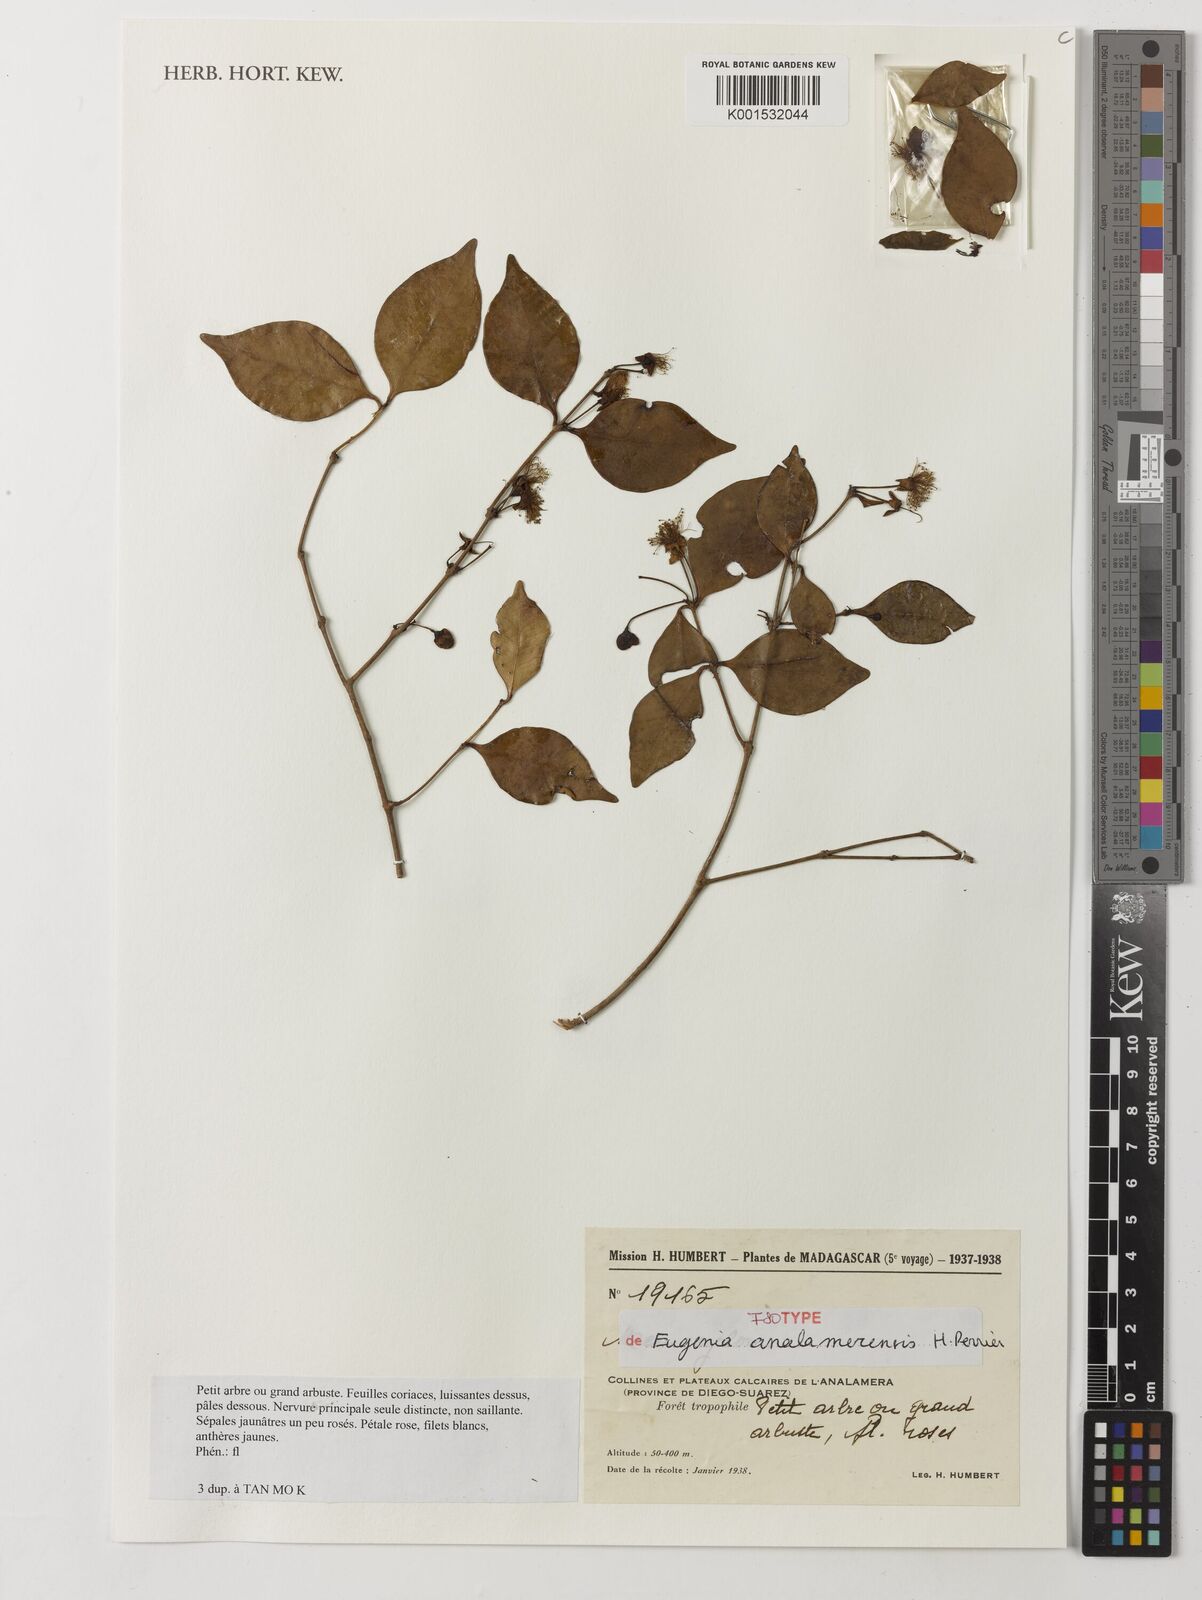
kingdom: Plantae
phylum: Tracheophyta
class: Magnoliopsida
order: Myrtales
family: Myrtaceae
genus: Eugenia
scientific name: Eugenia analamerensis
